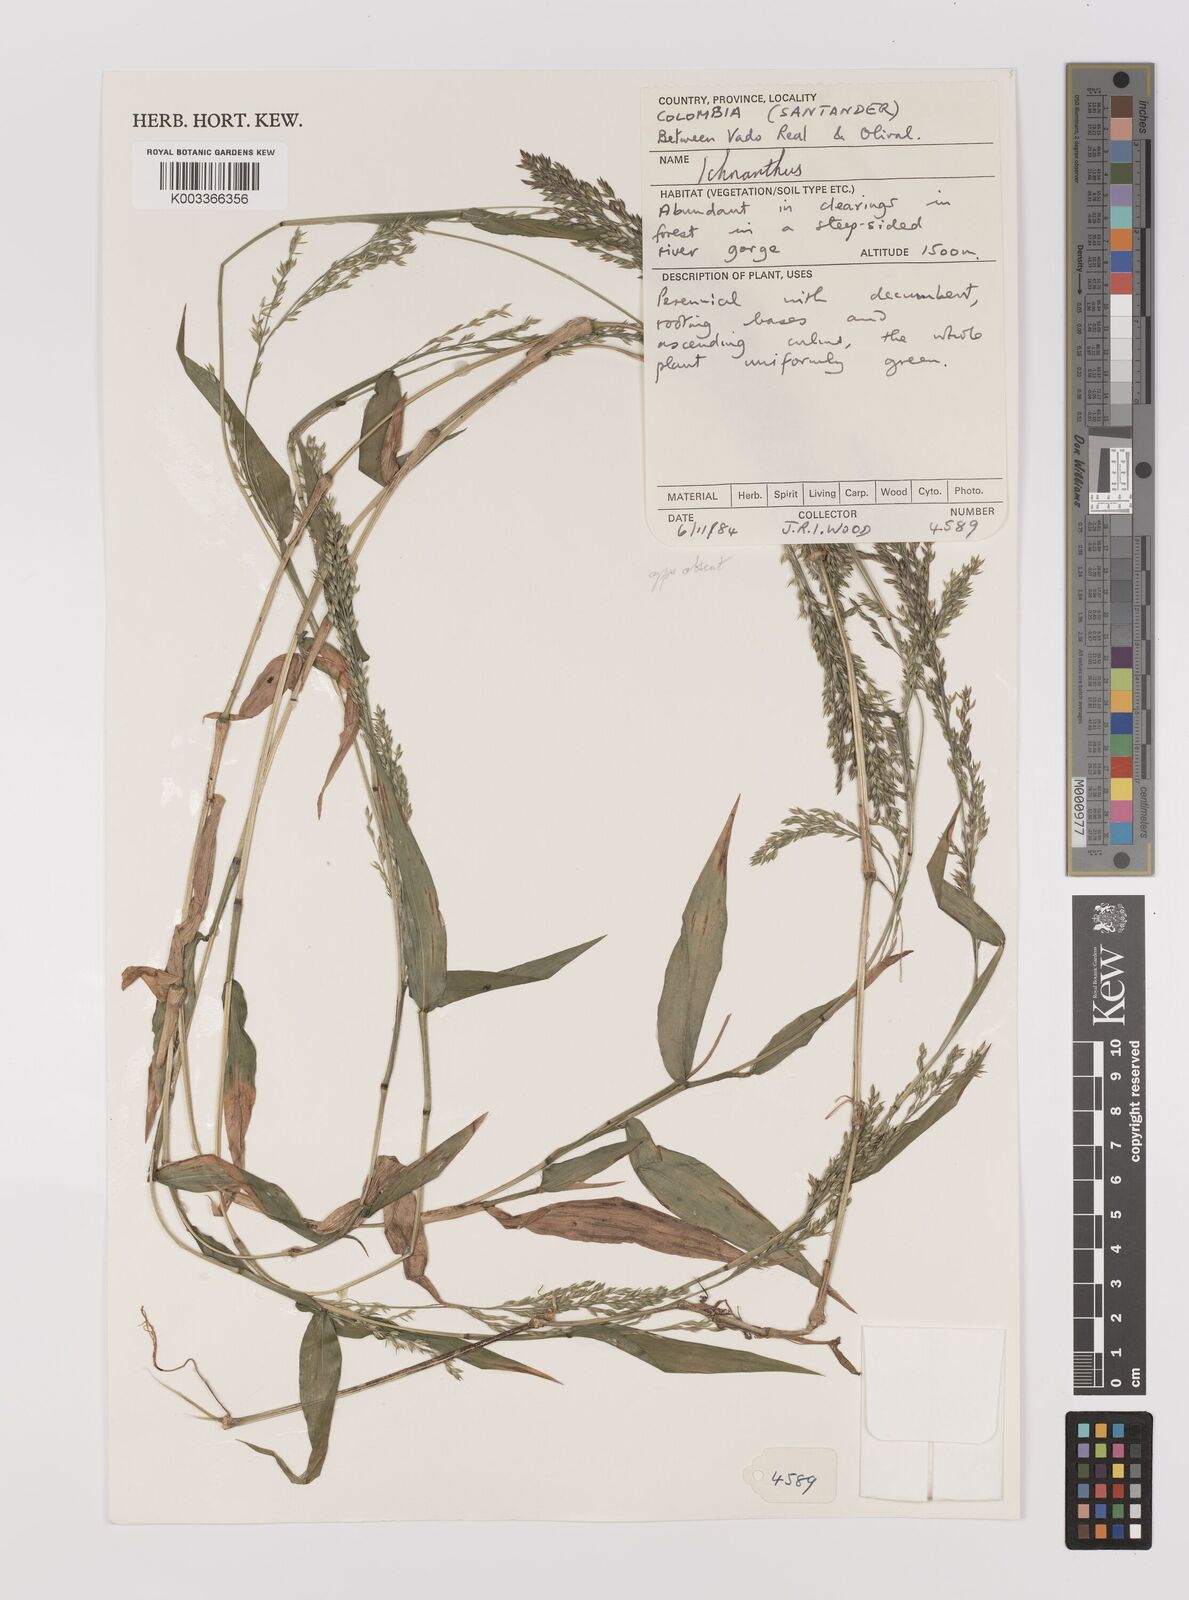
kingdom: Plantae
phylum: Tracheophyta
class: Liliopsida
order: Poales
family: Poaceae
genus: Ichnanthus
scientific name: Ichnanthus tenuis
